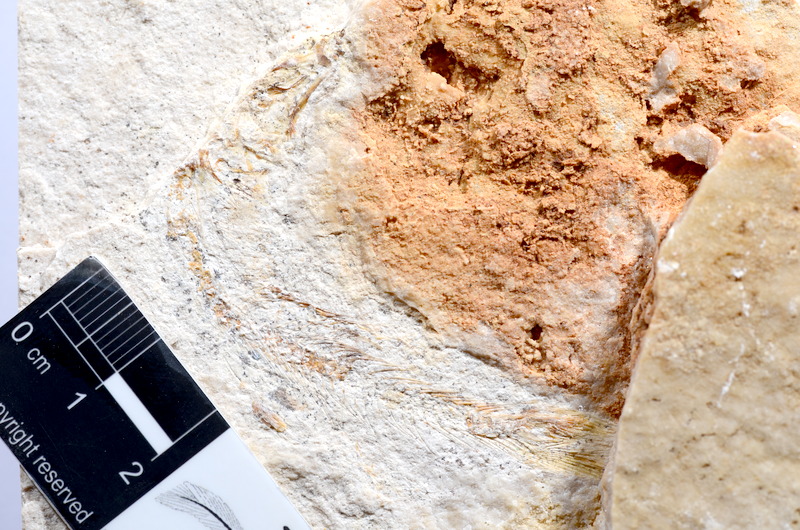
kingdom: Animalia
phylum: Chordata
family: Ascalaboidae
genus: Tharsis
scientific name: Tharsis dubius
